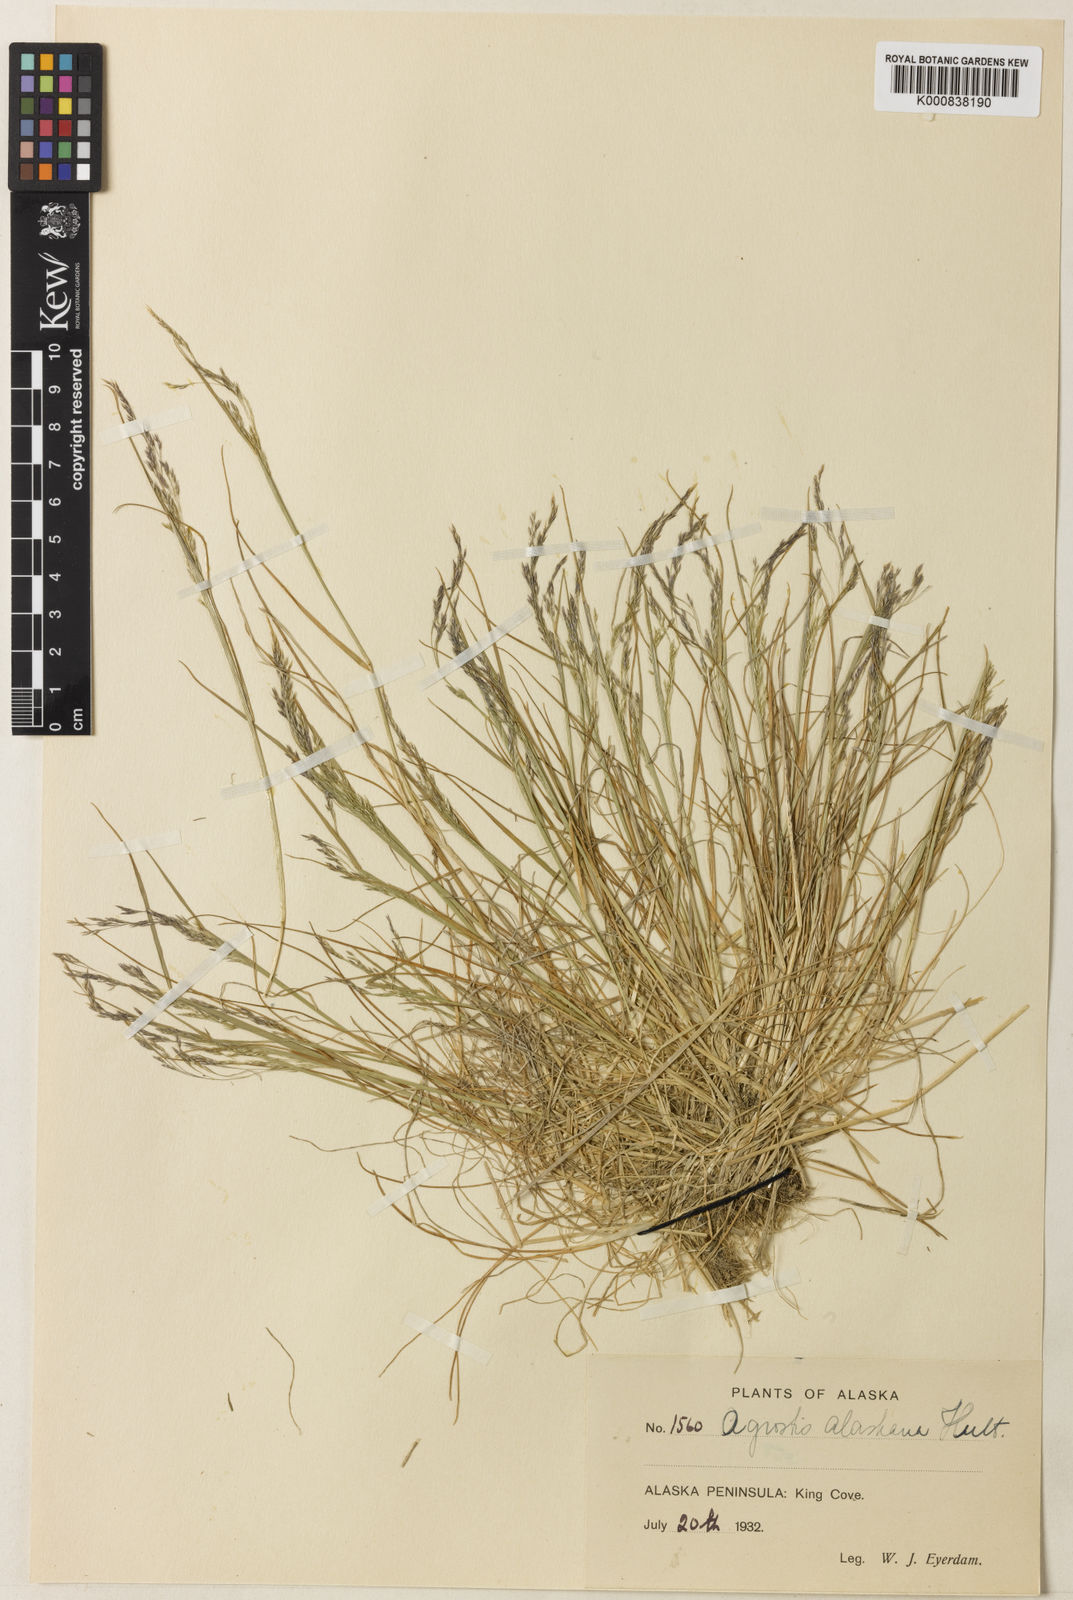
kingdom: Plantae
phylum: Tracheophyta
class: Liliopsida
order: Poales
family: Poaceae
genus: Agrostis
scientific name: Agrostis
